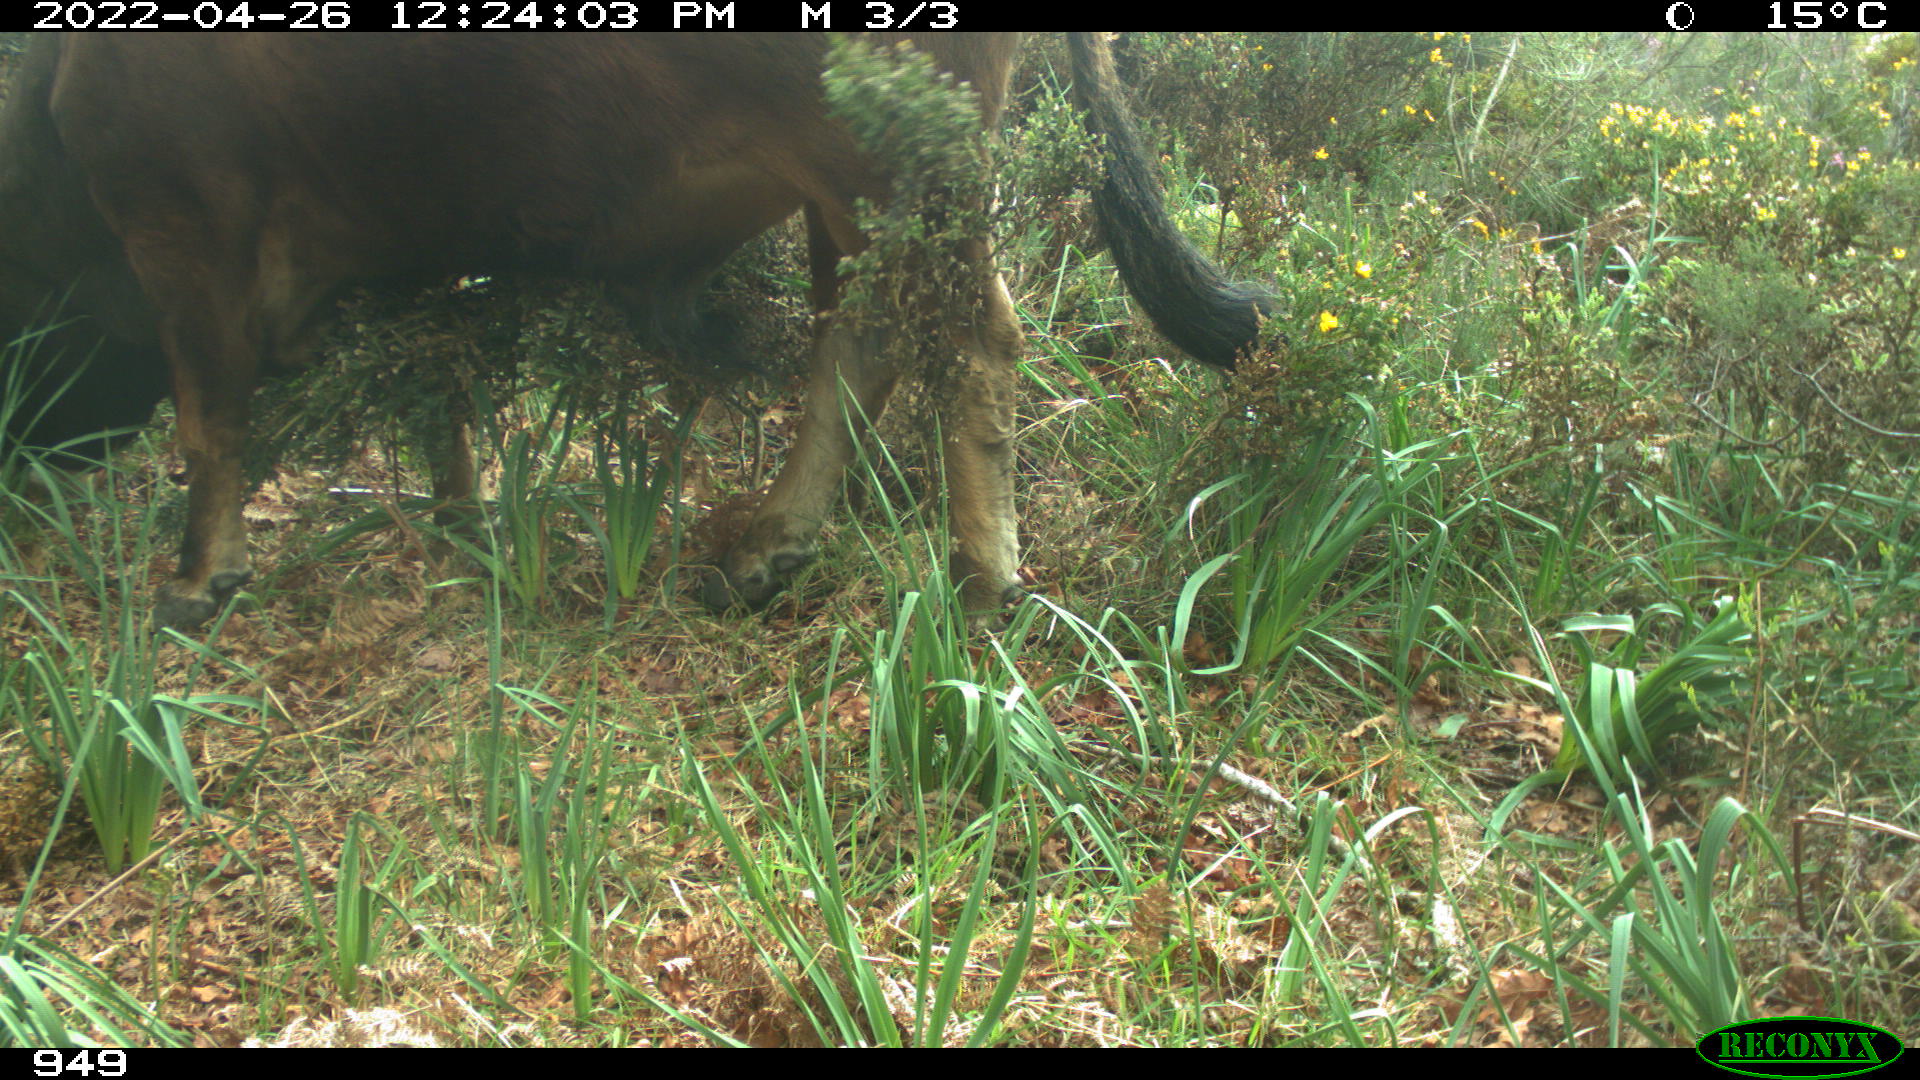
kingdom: Animalia
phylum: Chordata
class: Mammalia
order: Artiodactyla
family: Bovidae
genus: Bos
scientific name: Bos taurus
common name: Domesticated cattle
